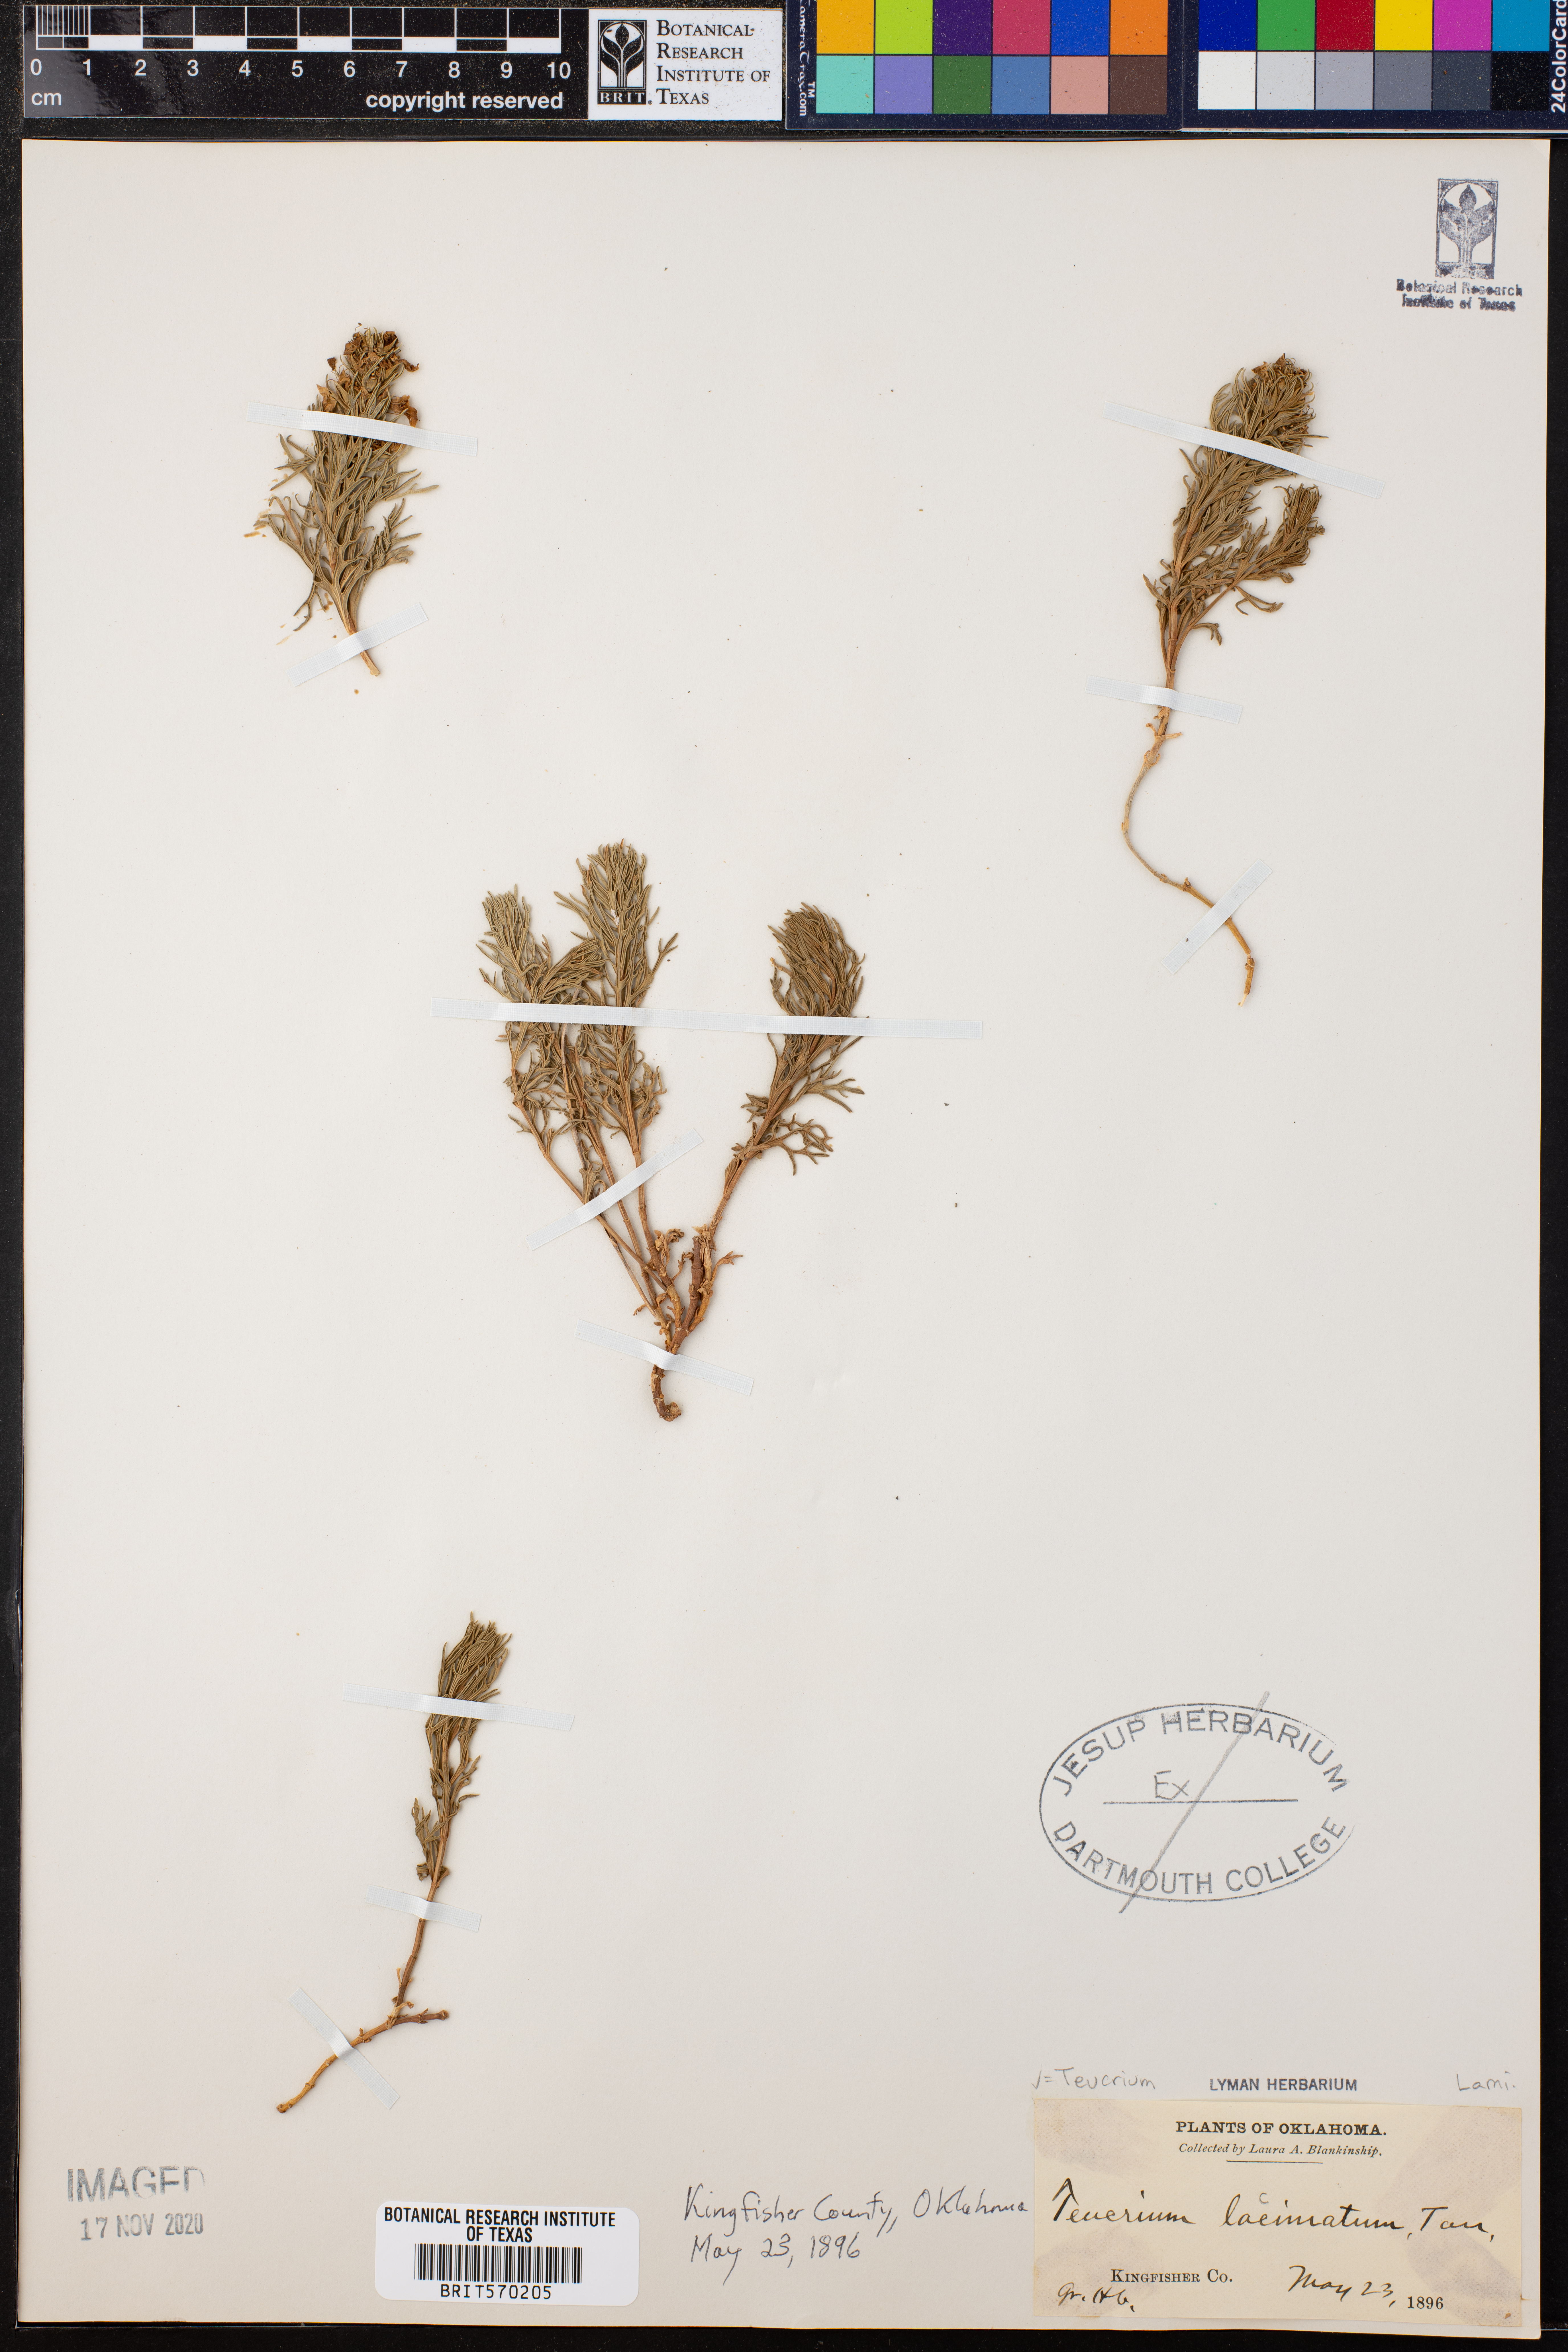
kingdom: Plantae
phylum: Tracheophyta
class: Magnoliopsida
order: Lamiales
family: Lamiaceae
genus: Teucrium
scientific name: Teucrium laciniatum
